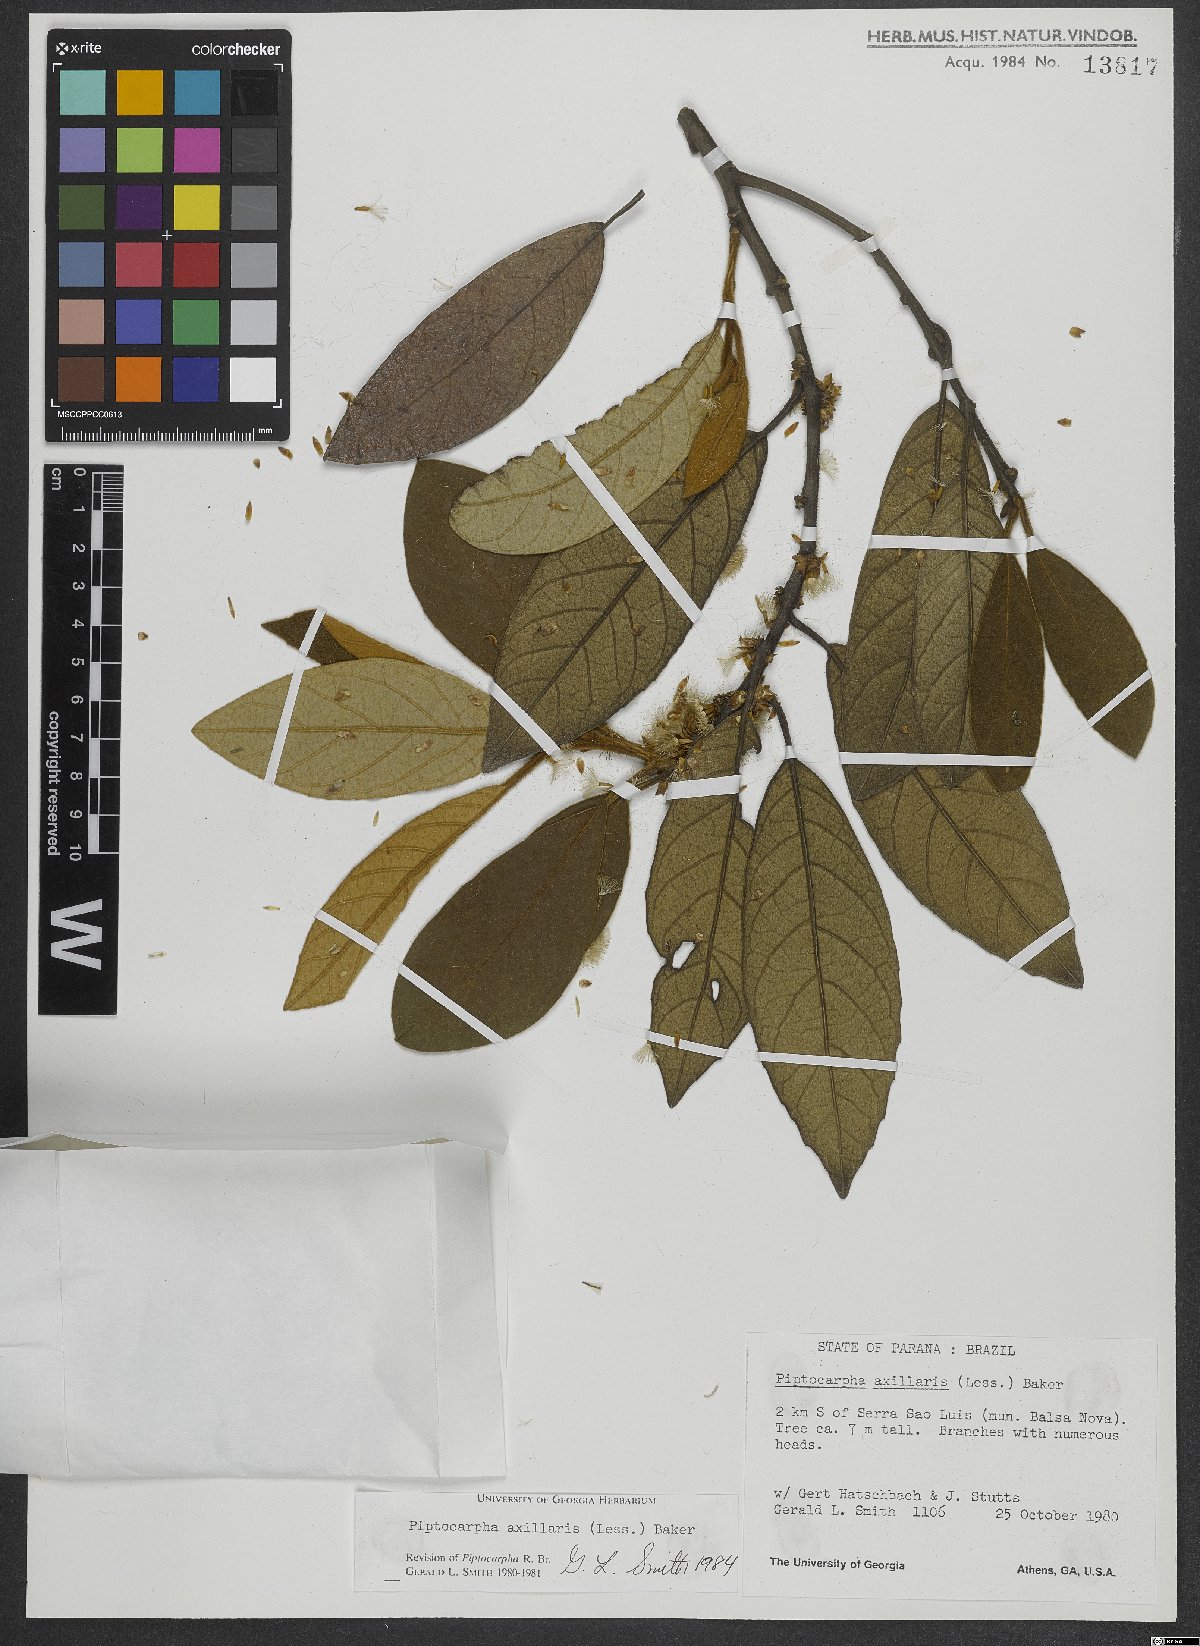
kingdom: Plantae
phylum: Tracheophyta
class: Magnoliopsida
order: Asterales
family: Asteraceae
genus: Piptocarpha
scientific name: Piptocarpha axillaris
